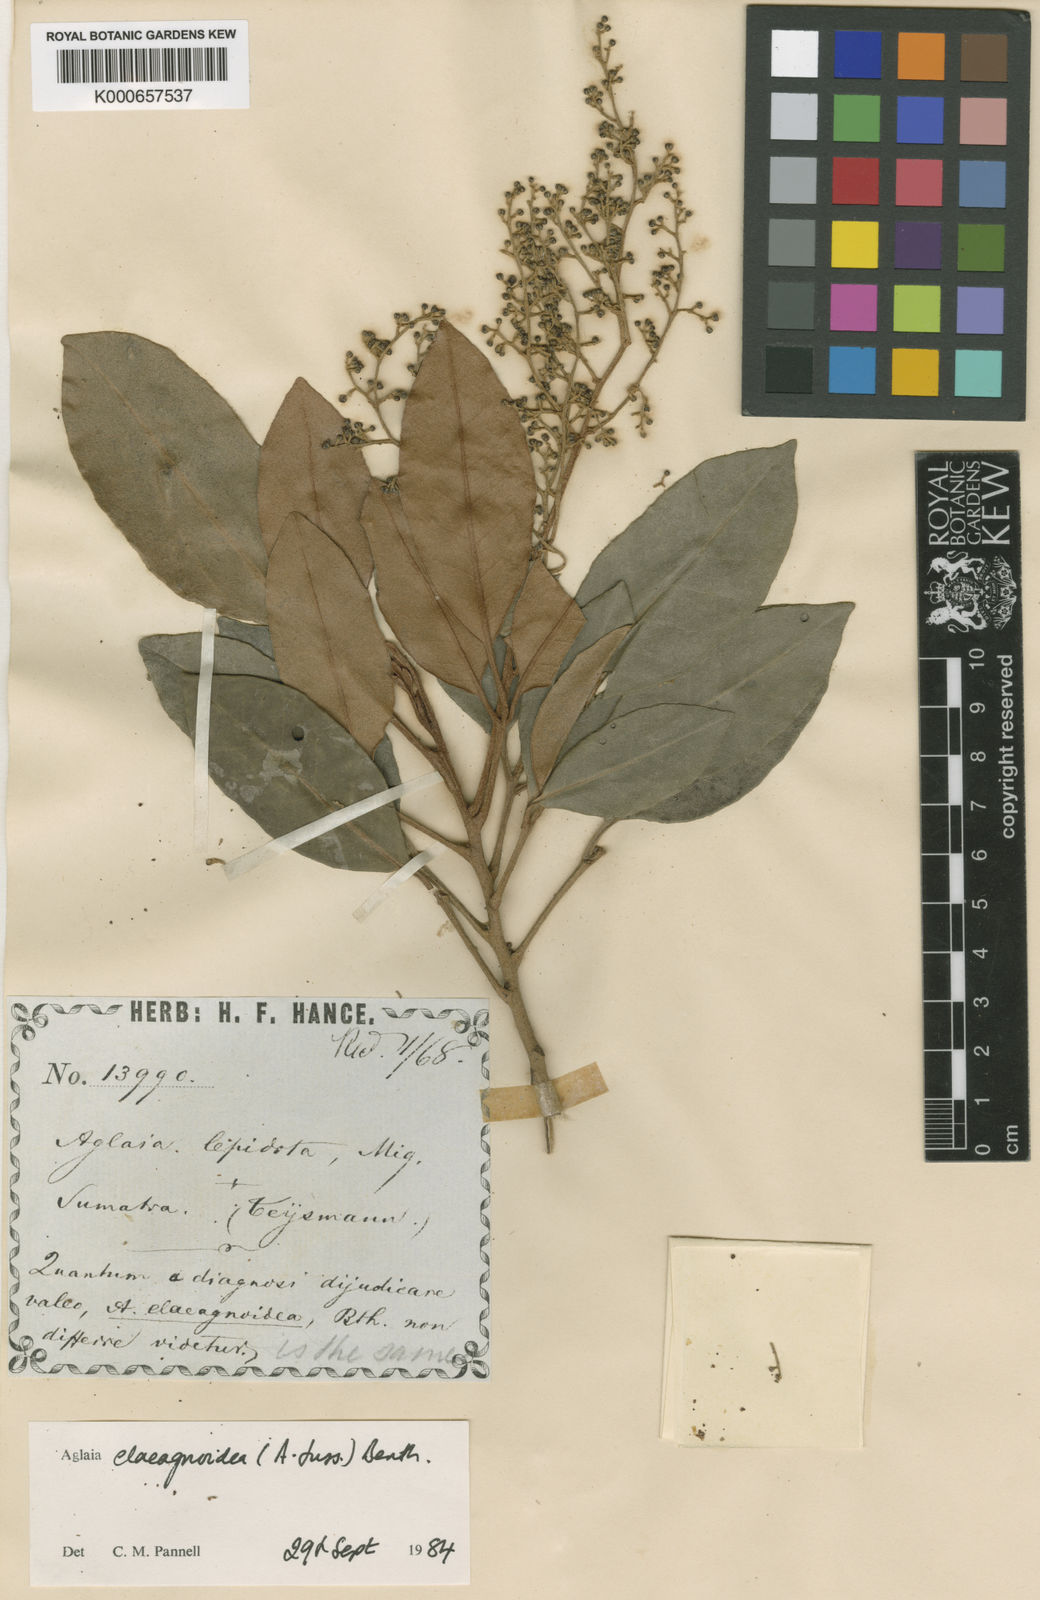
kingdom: Plantae
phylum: Tracheophyta
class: Magnoliopsida
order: Sapindales
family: Meliaceae
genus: Aglaia
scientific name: Aglaia elaeagnoidea
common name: Droopyleaf
